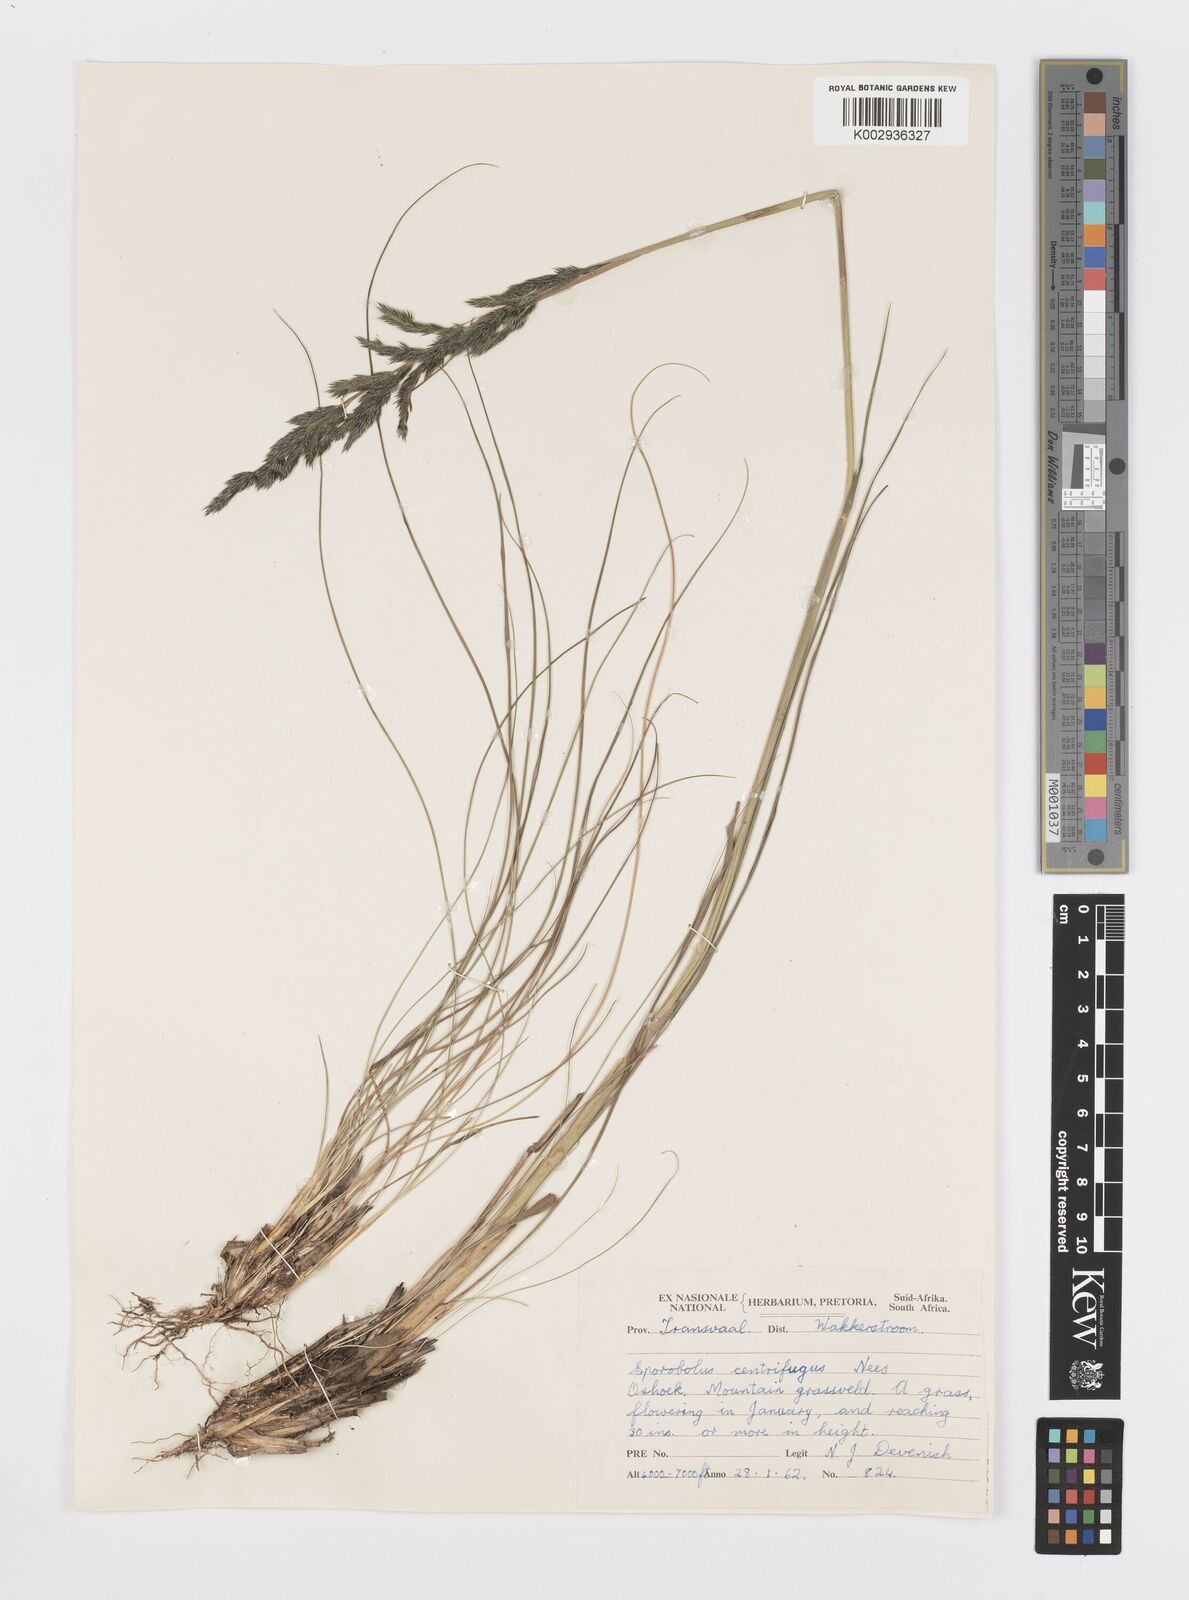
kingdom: Plantae
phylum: Tracheophyta
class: Liliopsida
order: Poales
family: Poaceae
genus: Sporobolus
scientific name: Sporobolus centrifugus
